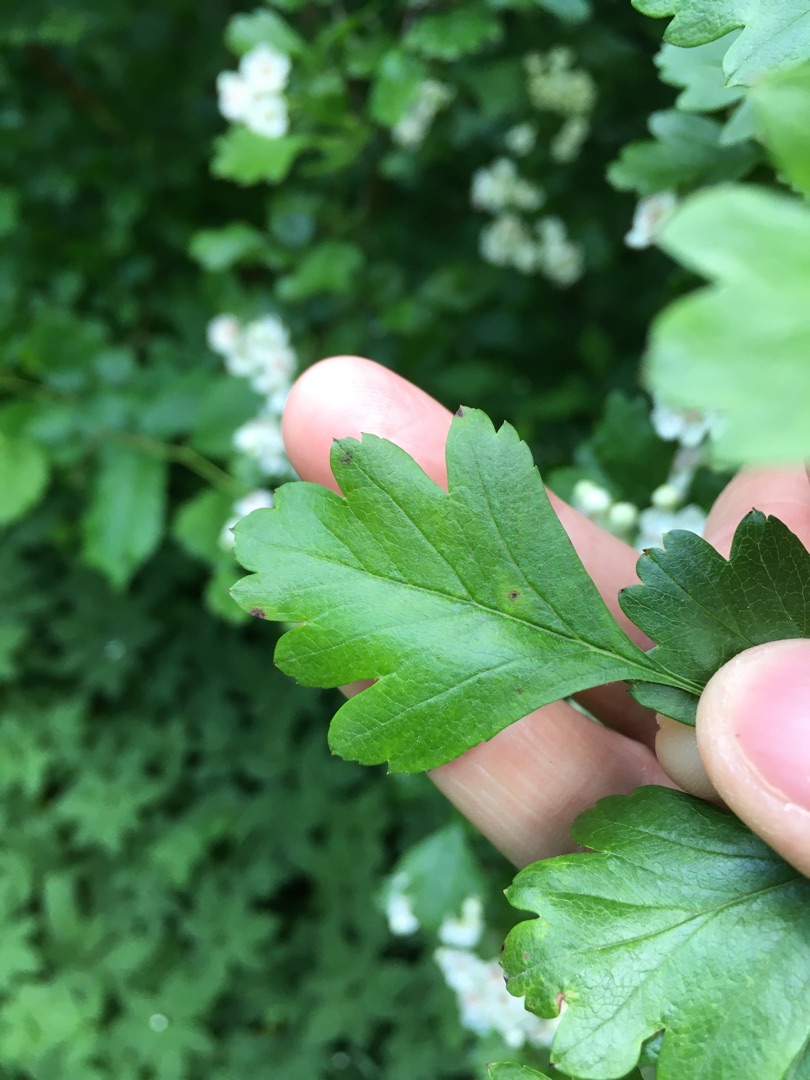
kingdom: Plantae
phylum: Tracheophyta
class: Magnoliopsida
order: Rosales
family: Rosaceae
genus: Crataegus
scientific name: Crataegus monogyna
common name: Engriflet hvidtjørn
